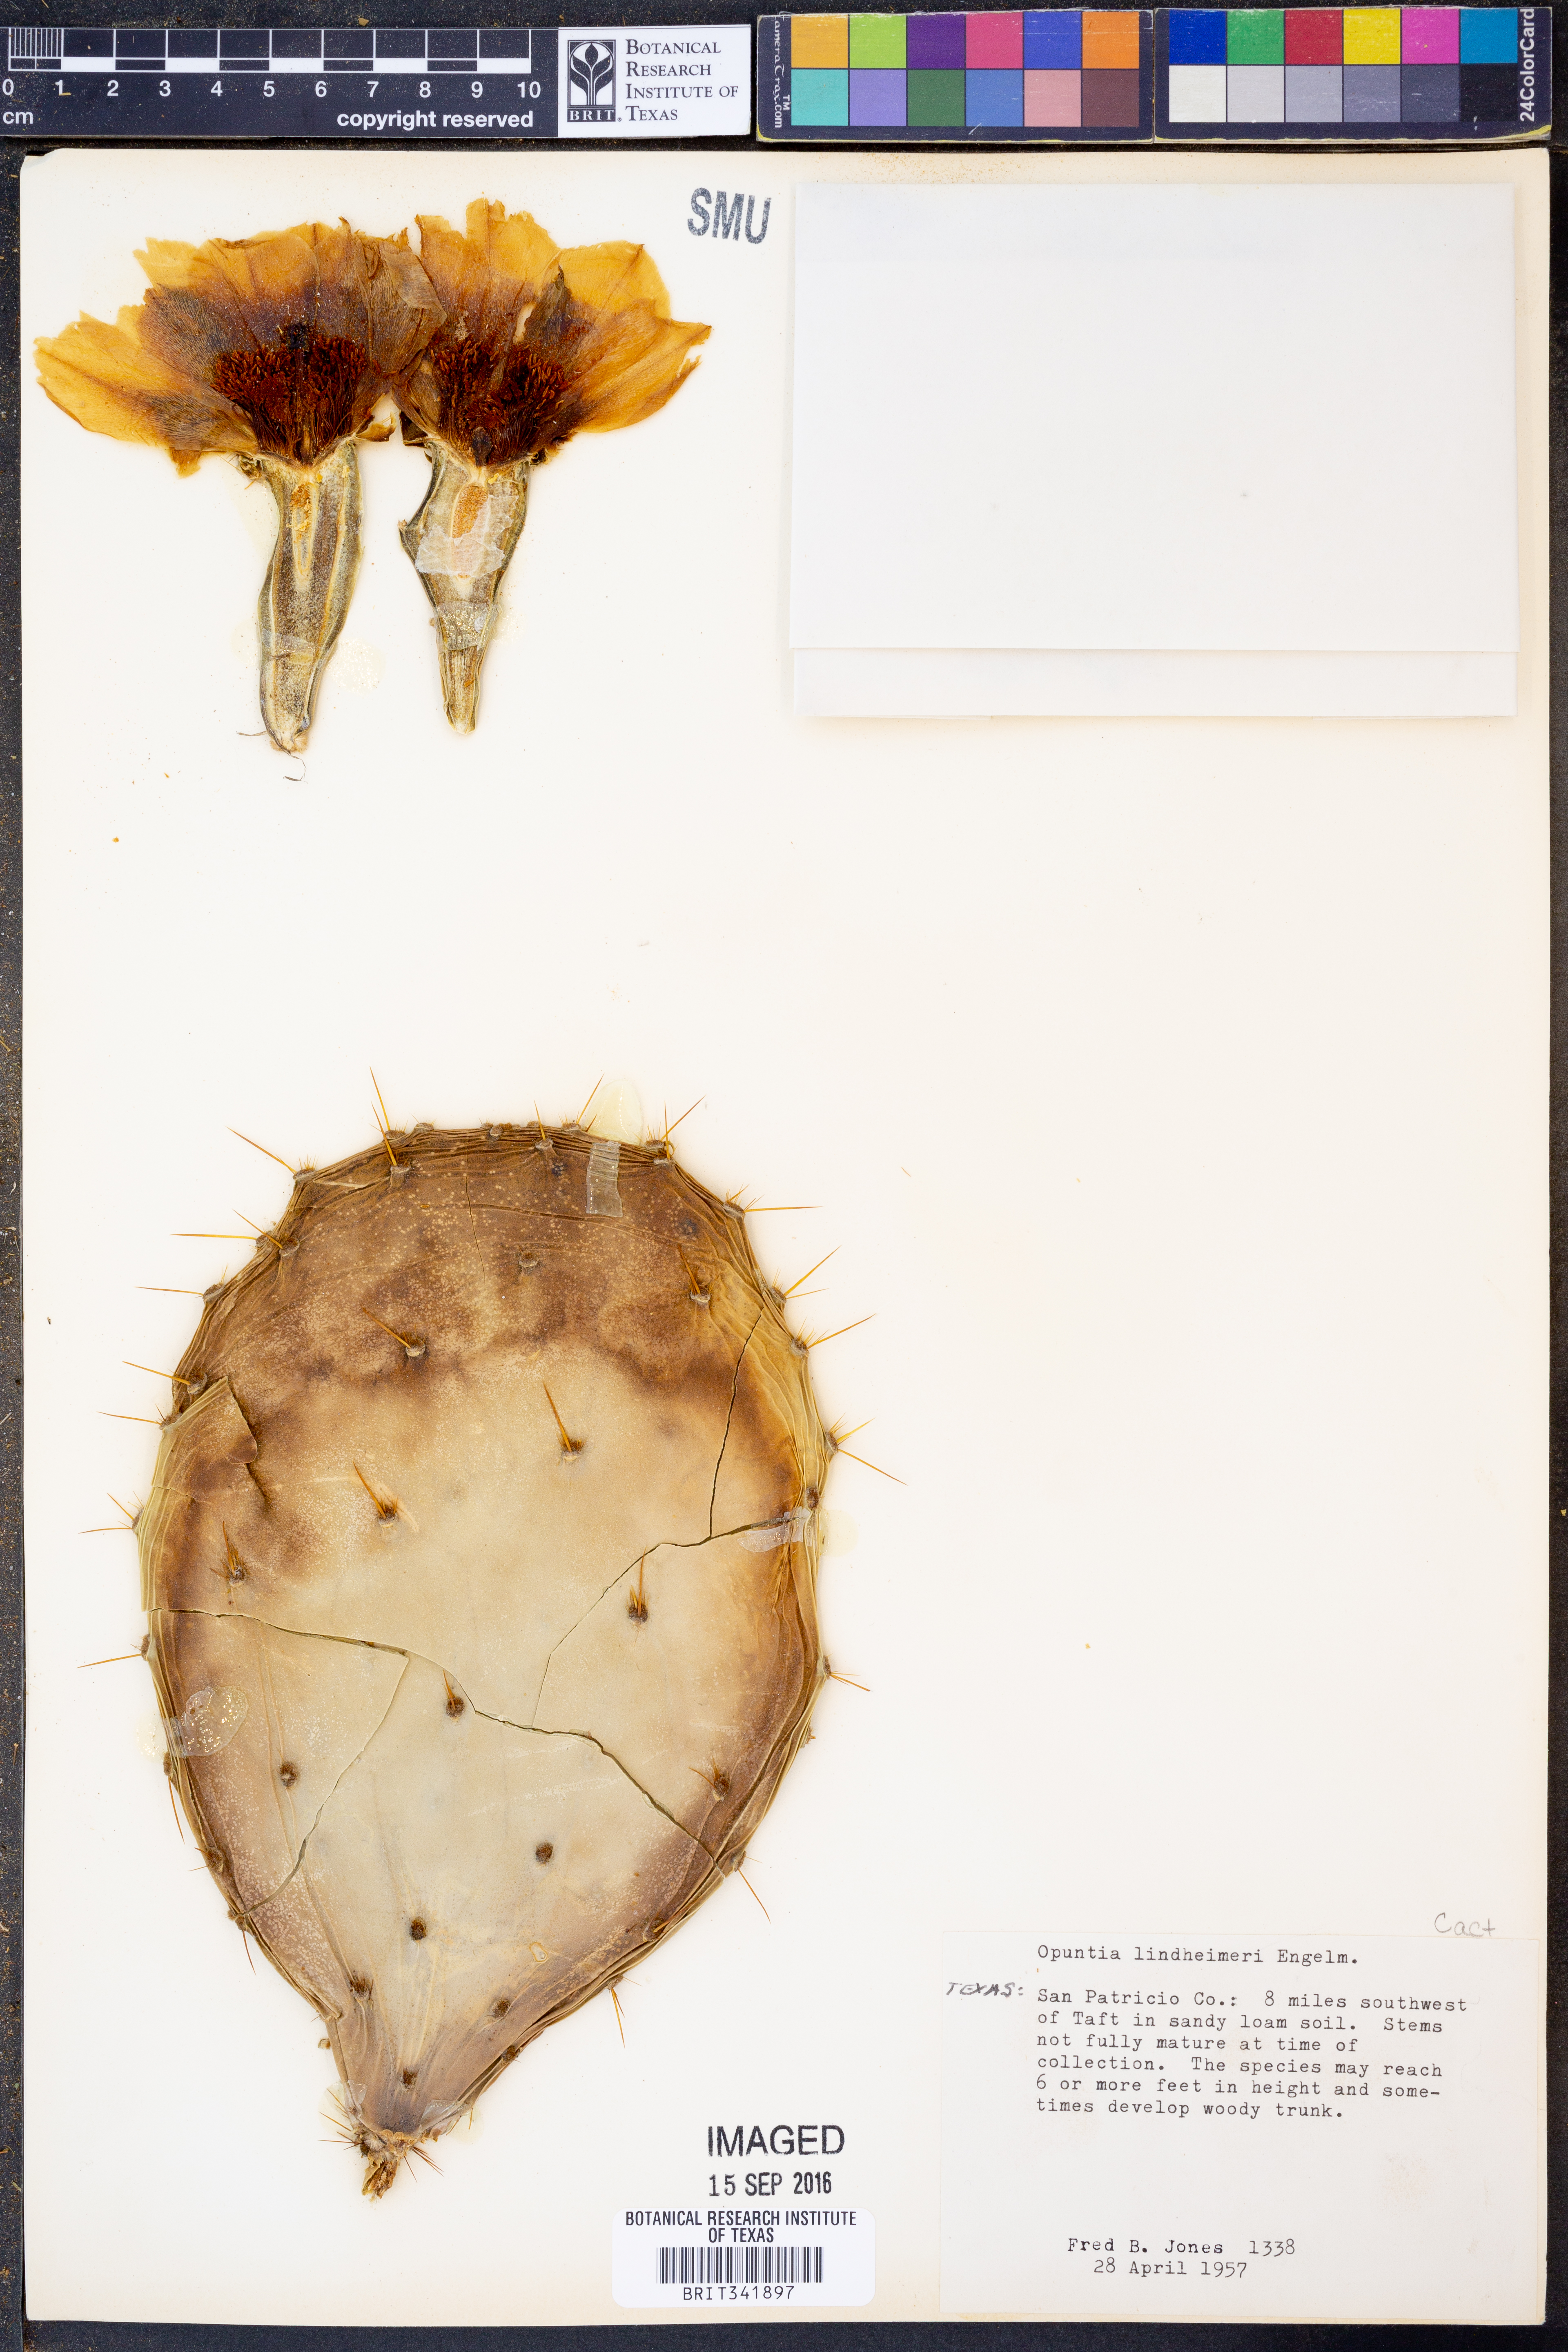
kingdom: Plantae
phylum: Tracheophyta
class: Magnoliopsida
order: Caryophyllales
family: Cactaceae
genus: Opuntia
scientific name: Opuntia engelmannii
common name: Cactus-apple
